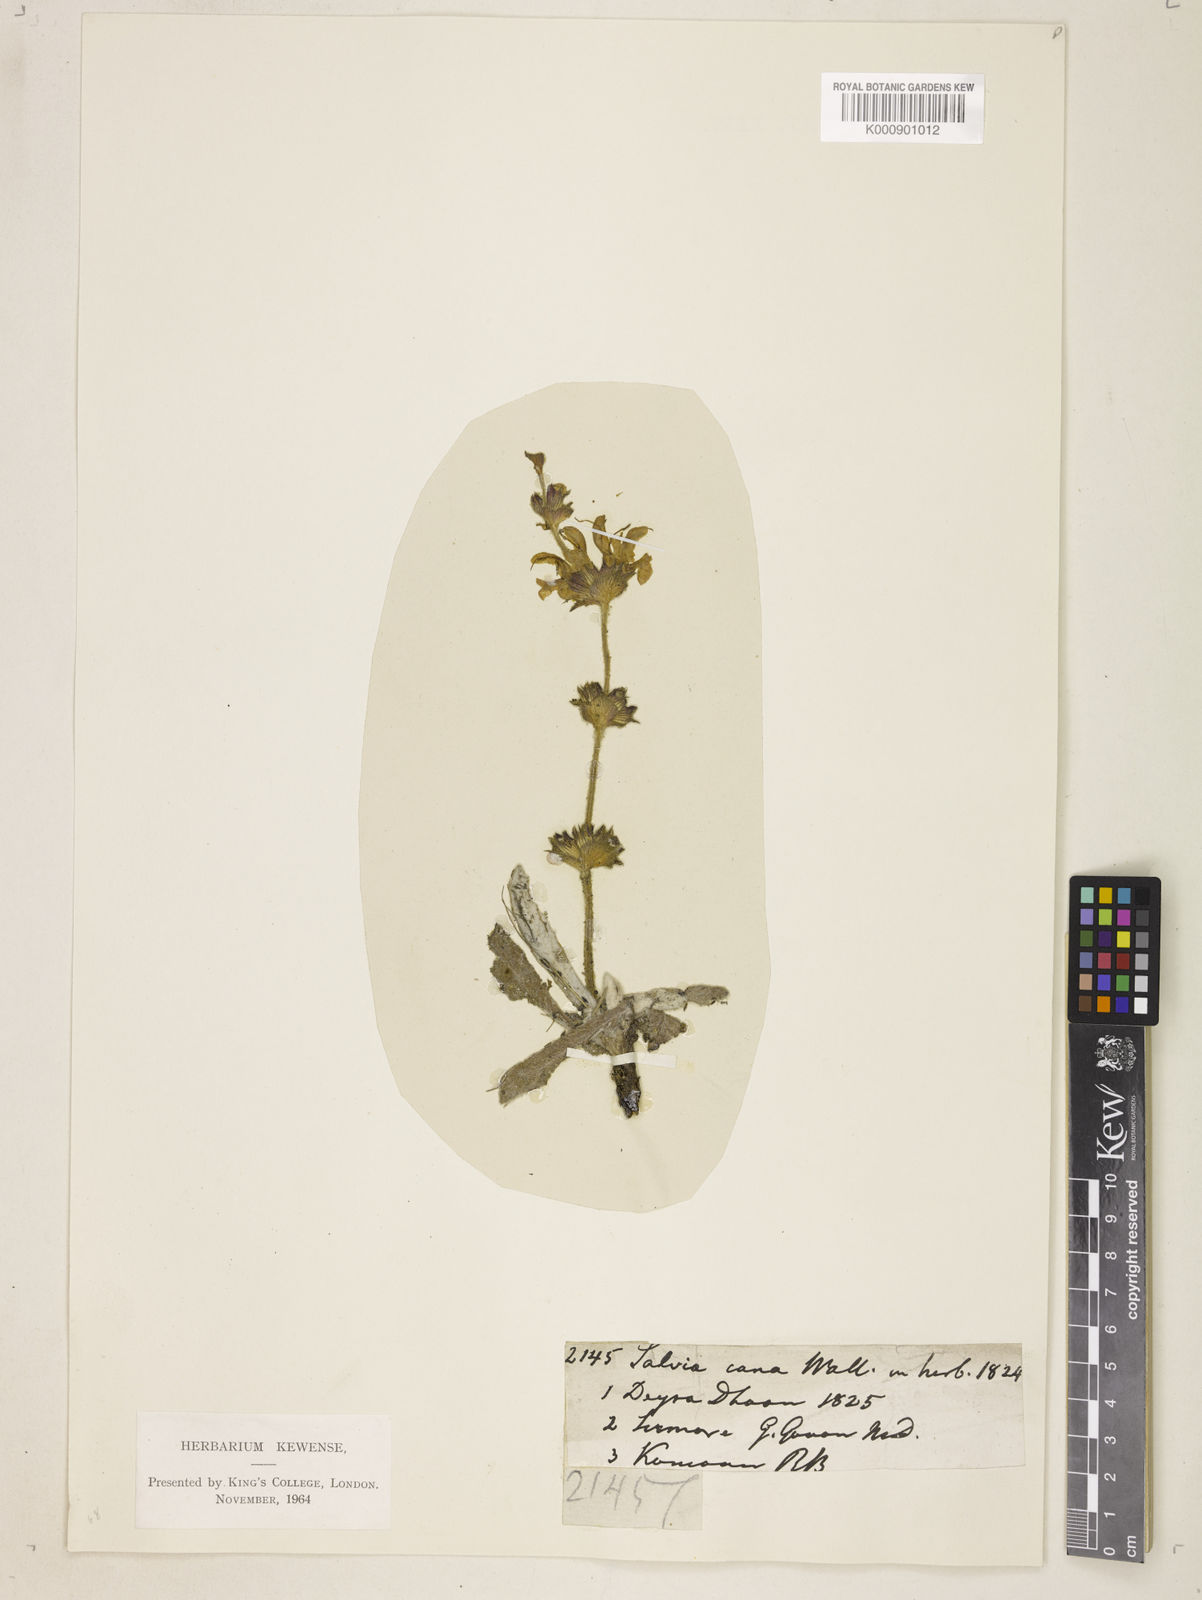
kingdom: Plantae
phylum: Tracheophyta
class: Magnoliopsida
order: Lamiales
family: Lamiaceae
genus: Salvia
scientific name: Salvia
